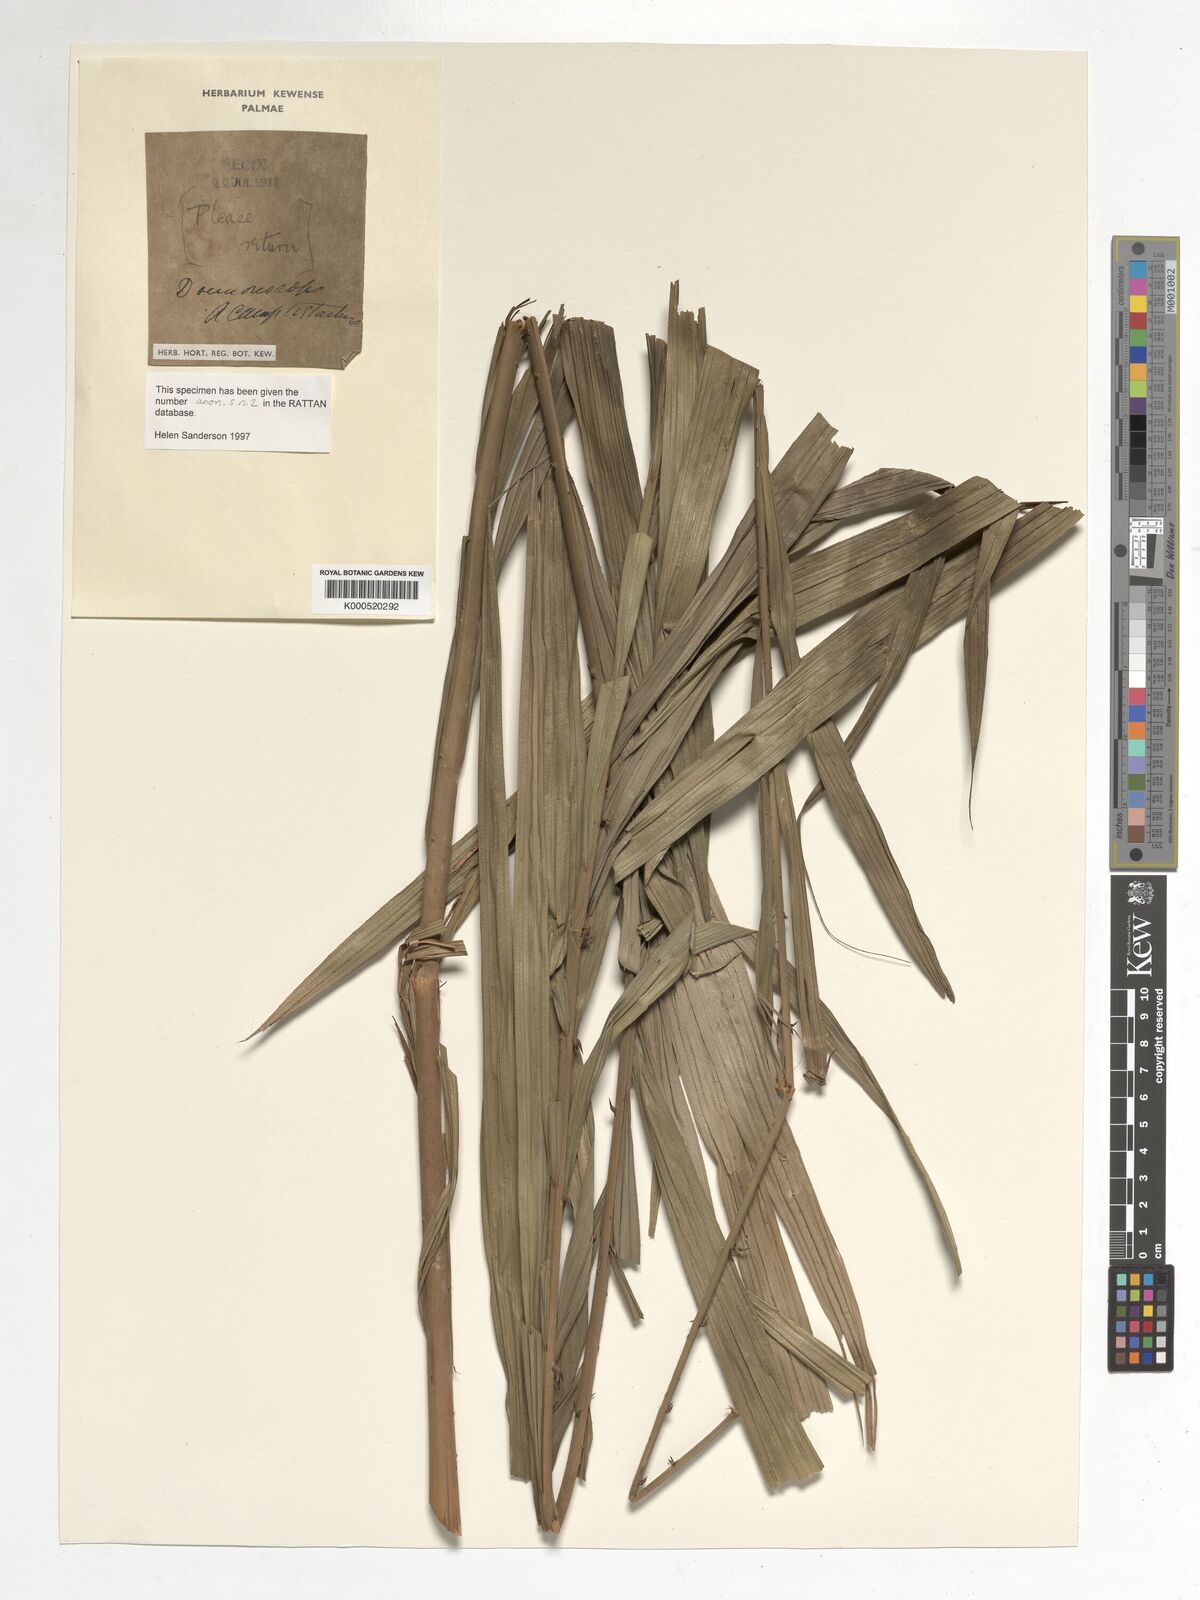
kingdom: Plantae
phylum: Tracheophyta
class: Liliopsida
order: Arecales
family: Arecaceae
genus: Calamus
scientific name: Calamus acamptostachys
